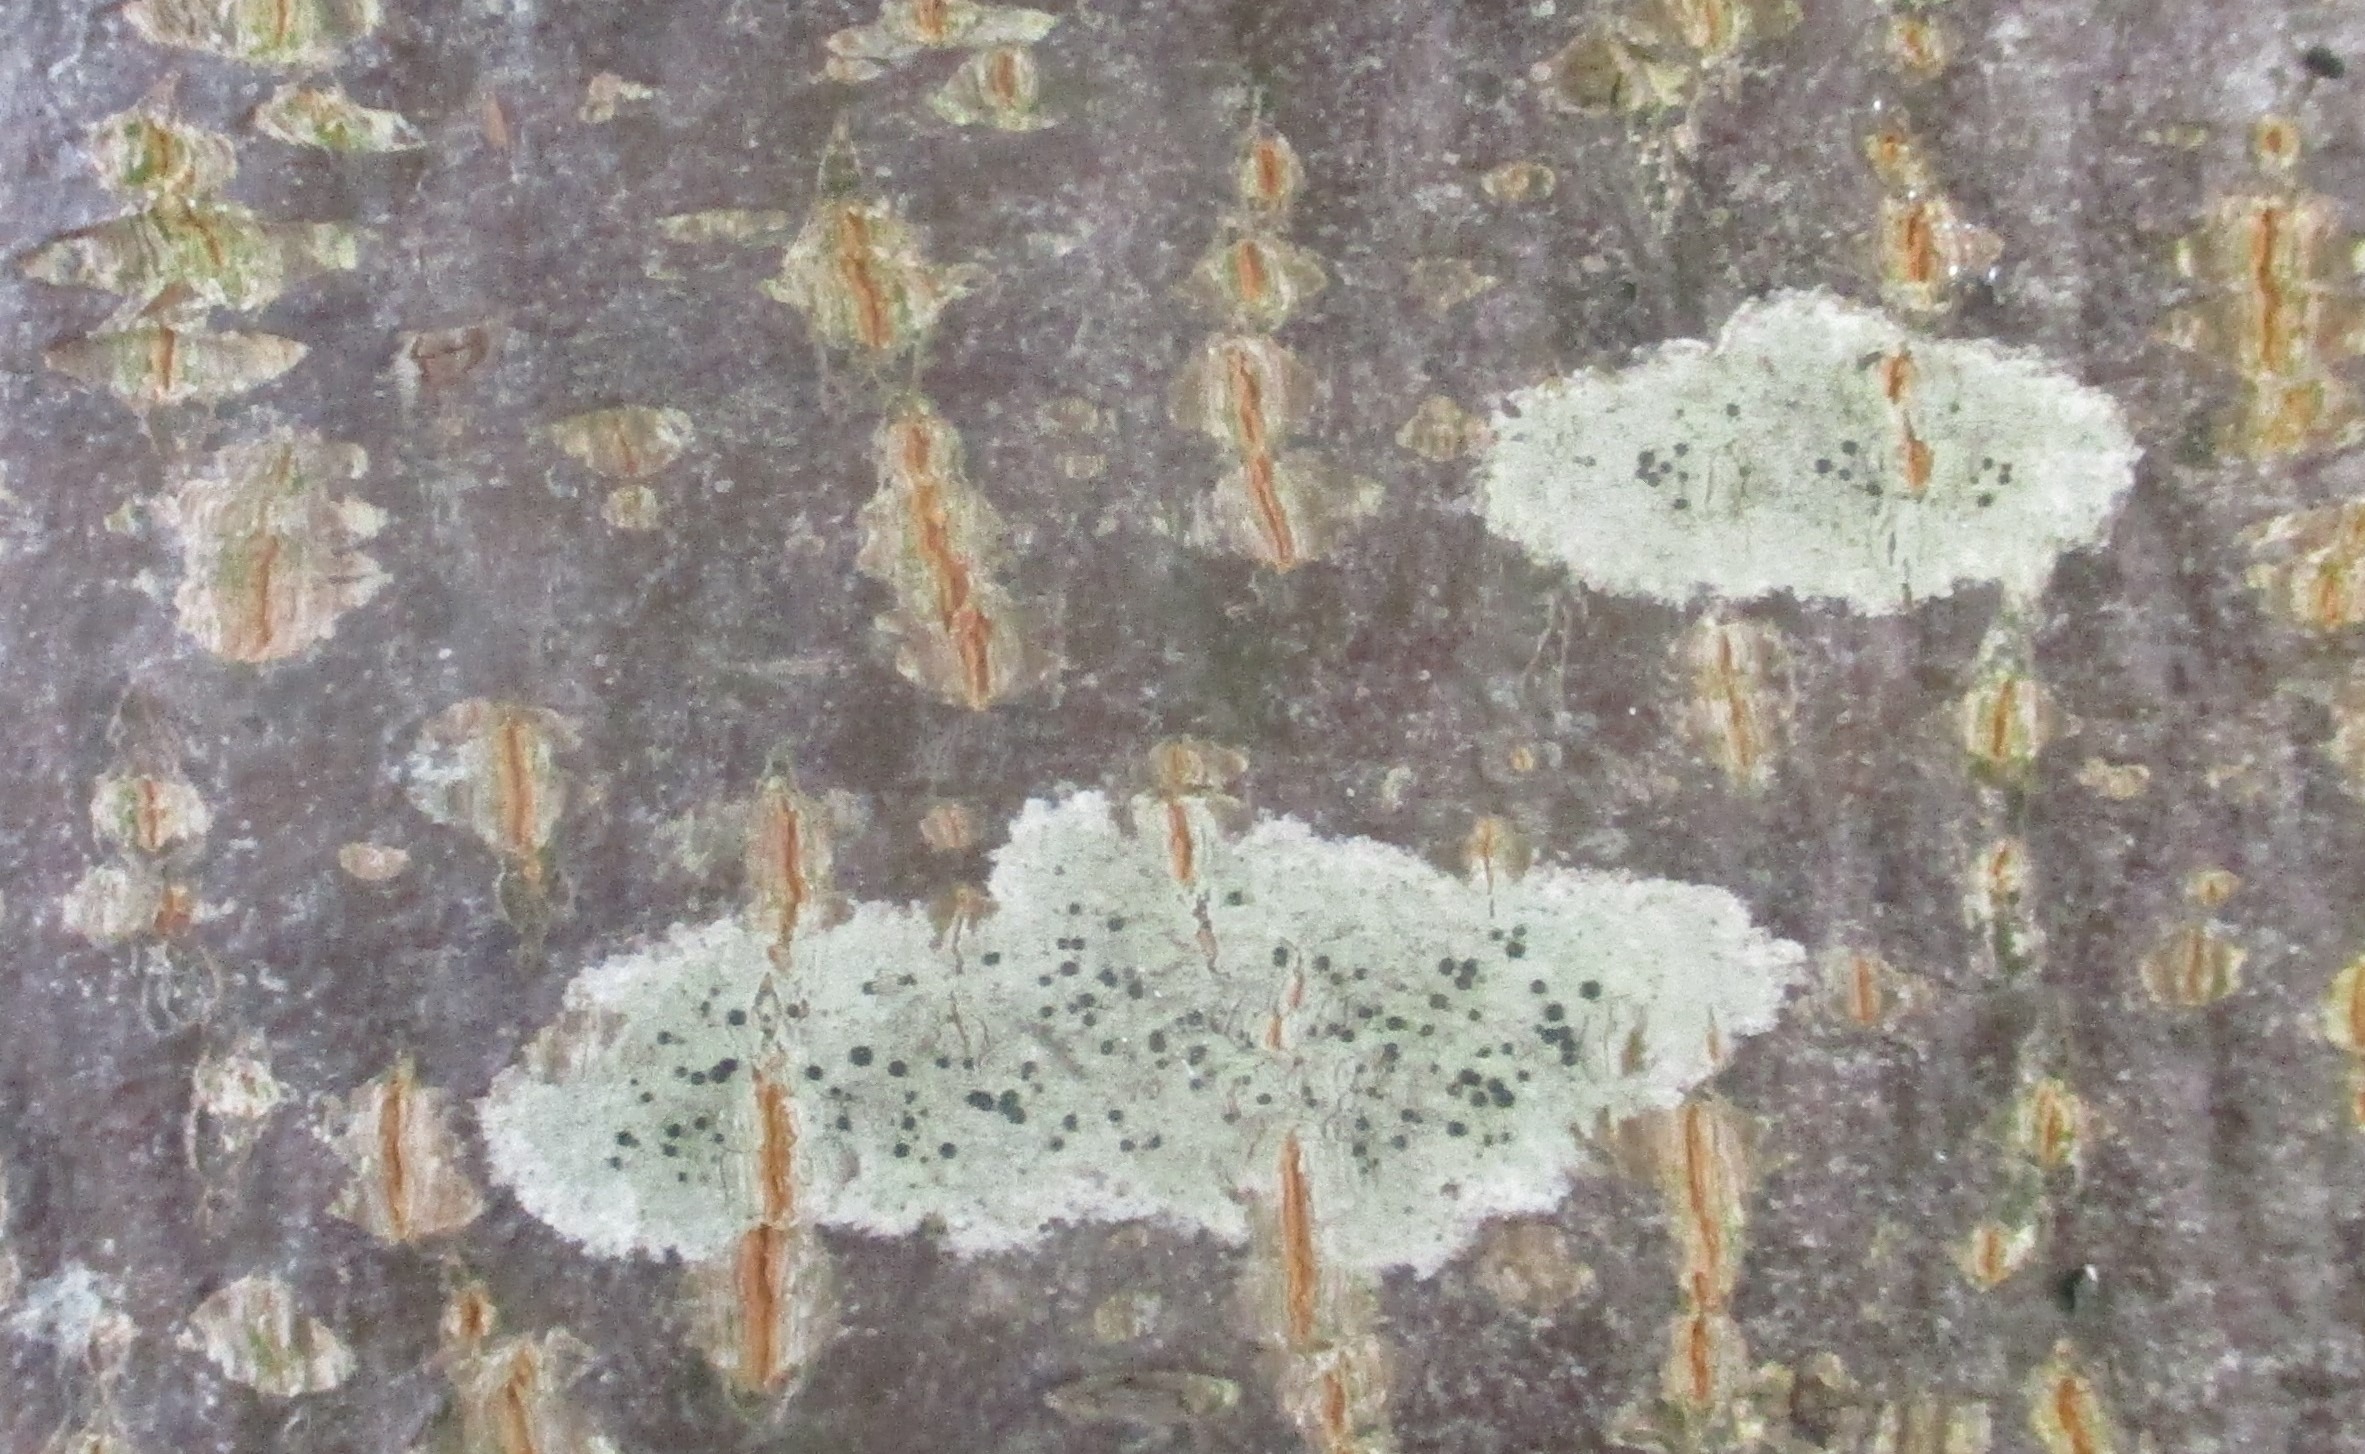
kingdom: Fungi
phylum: Ascomycota
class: Lecanoromycetes
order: Lecanorales
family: Lecanoraceae
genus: Lecidella
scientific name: Lecidella elaeochroma
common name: Grågrøn skivelav
